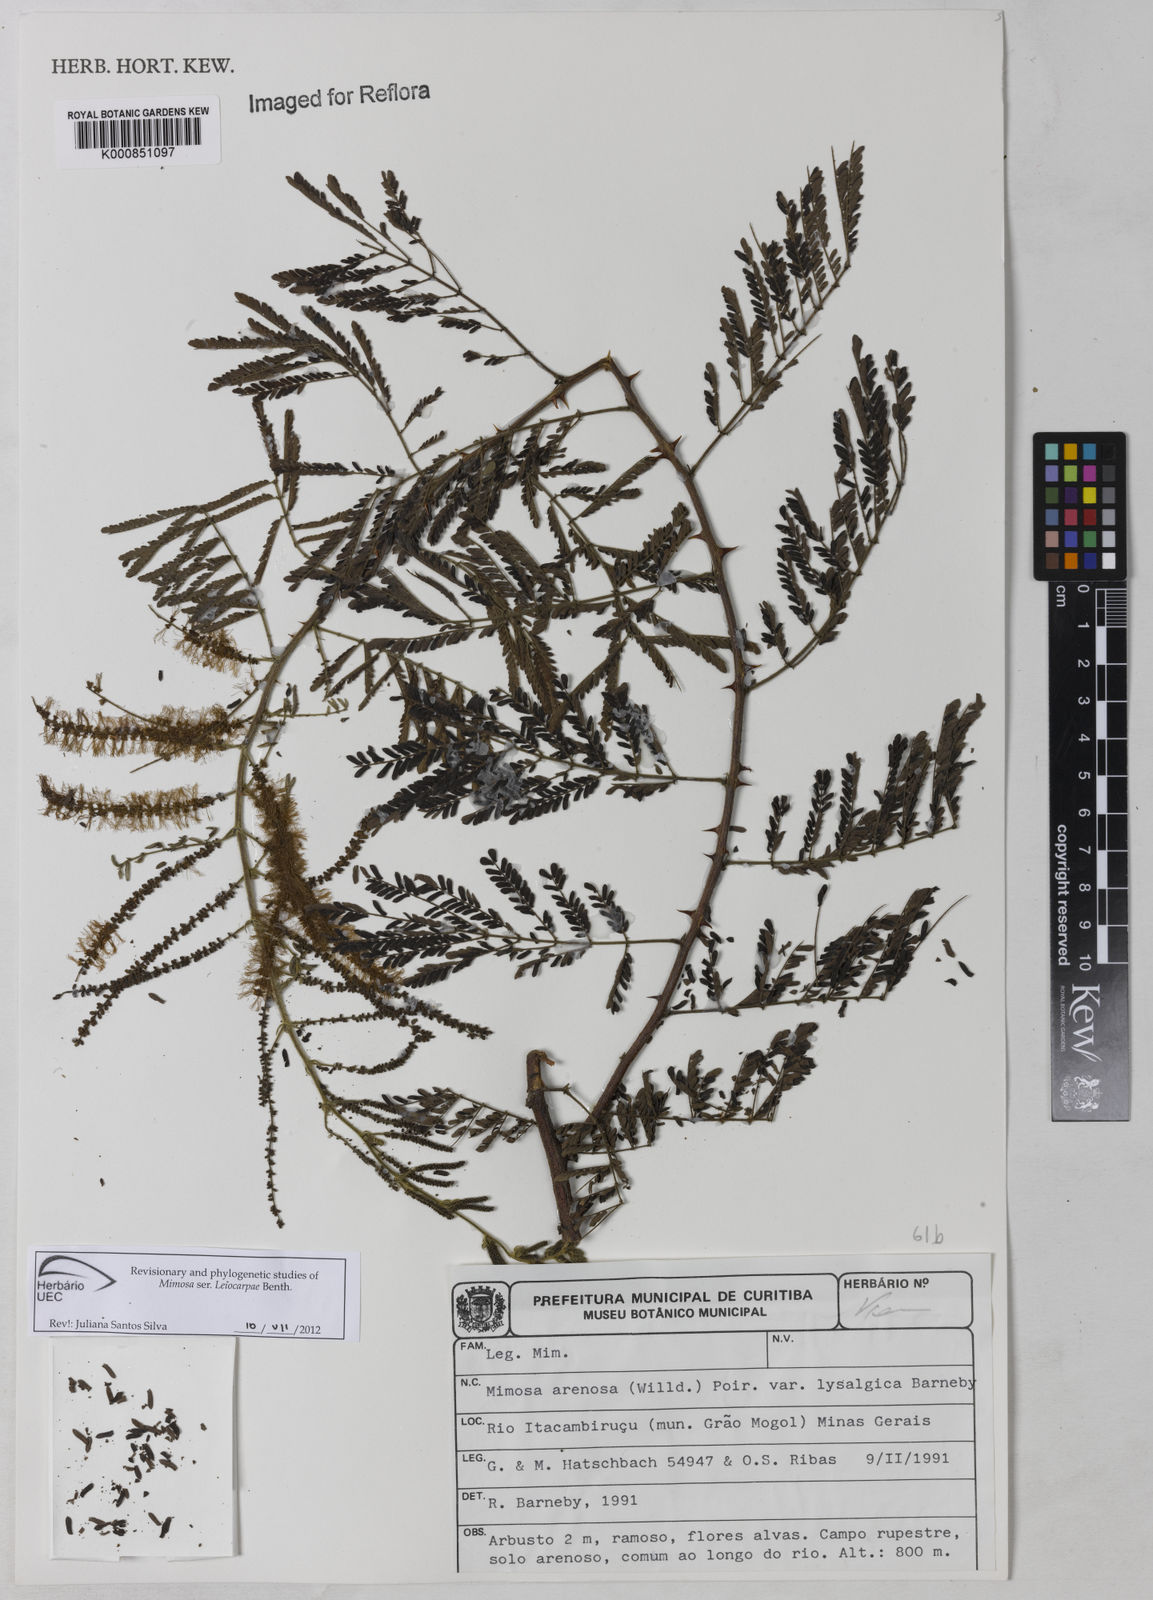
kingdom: Plantae
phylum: Tracheophyta
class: Magnoliopsida
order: Fabales
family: Fabaceae
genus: Mimosa
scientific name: Mimosa arenosa
